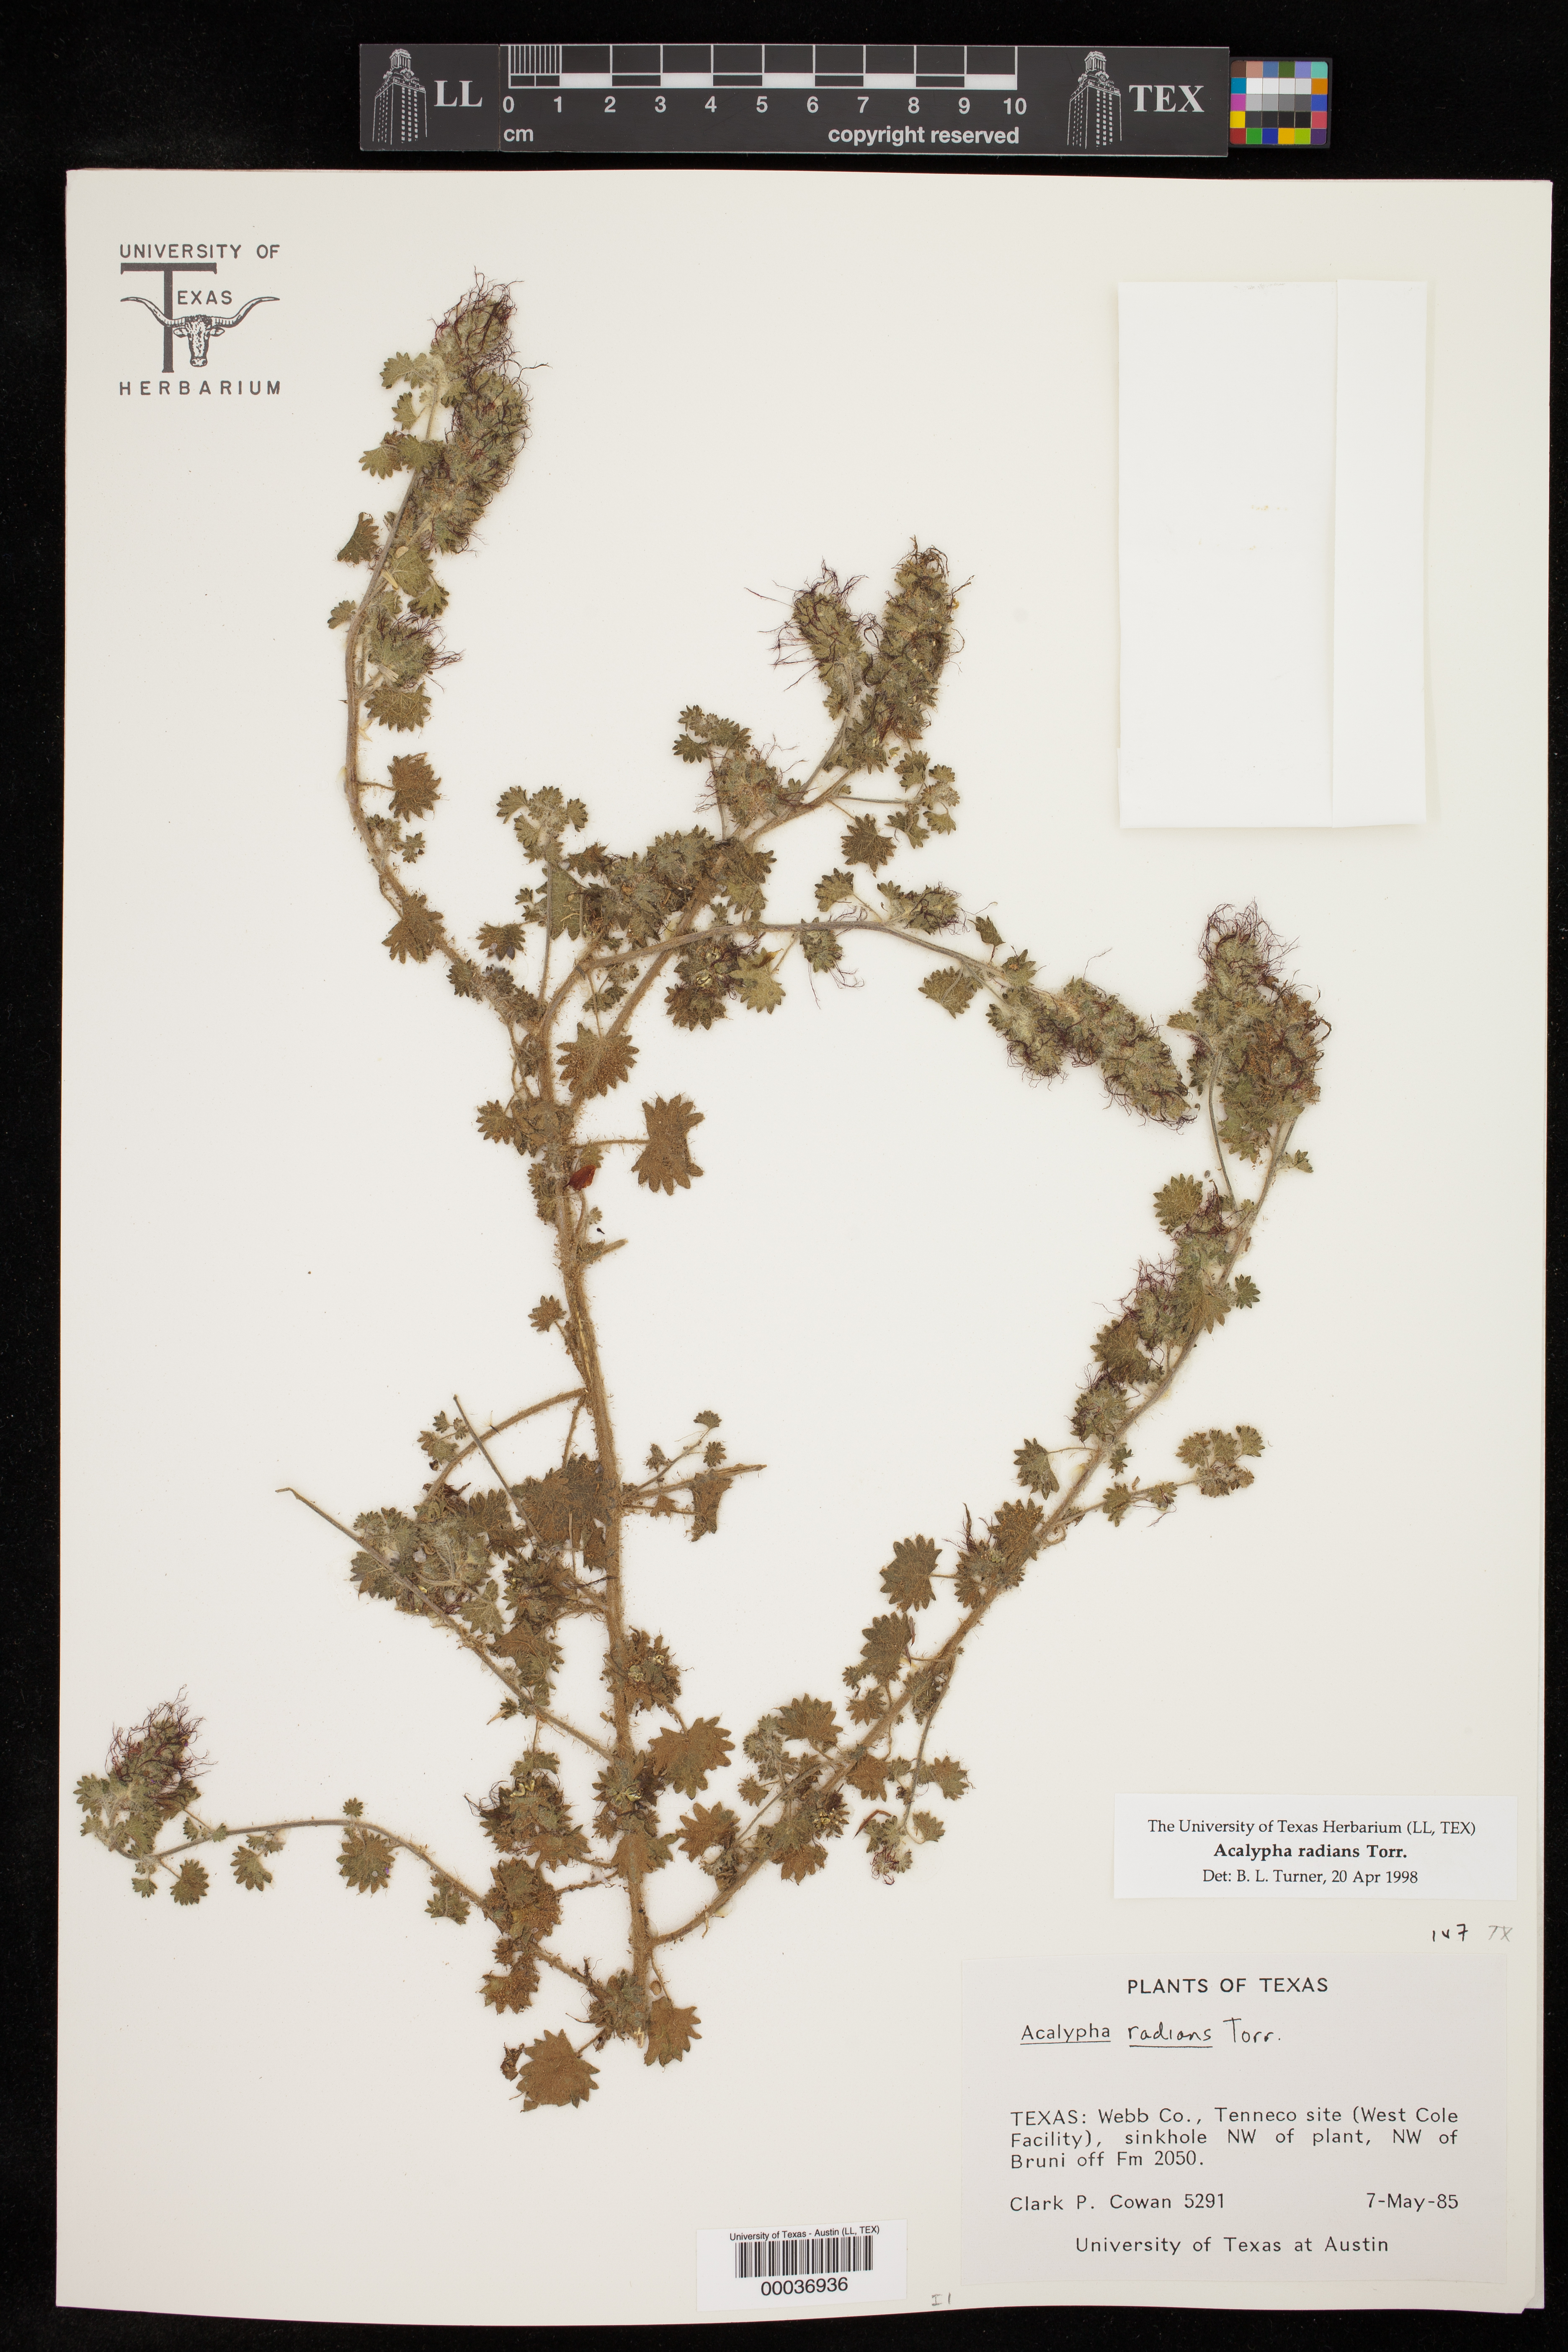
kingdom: Plantae
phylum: Tracheophyta
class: Magnoliopsida
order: Malpighiales
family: Euphorbiaceae
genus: Acalypha
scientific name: Acalypha radians
